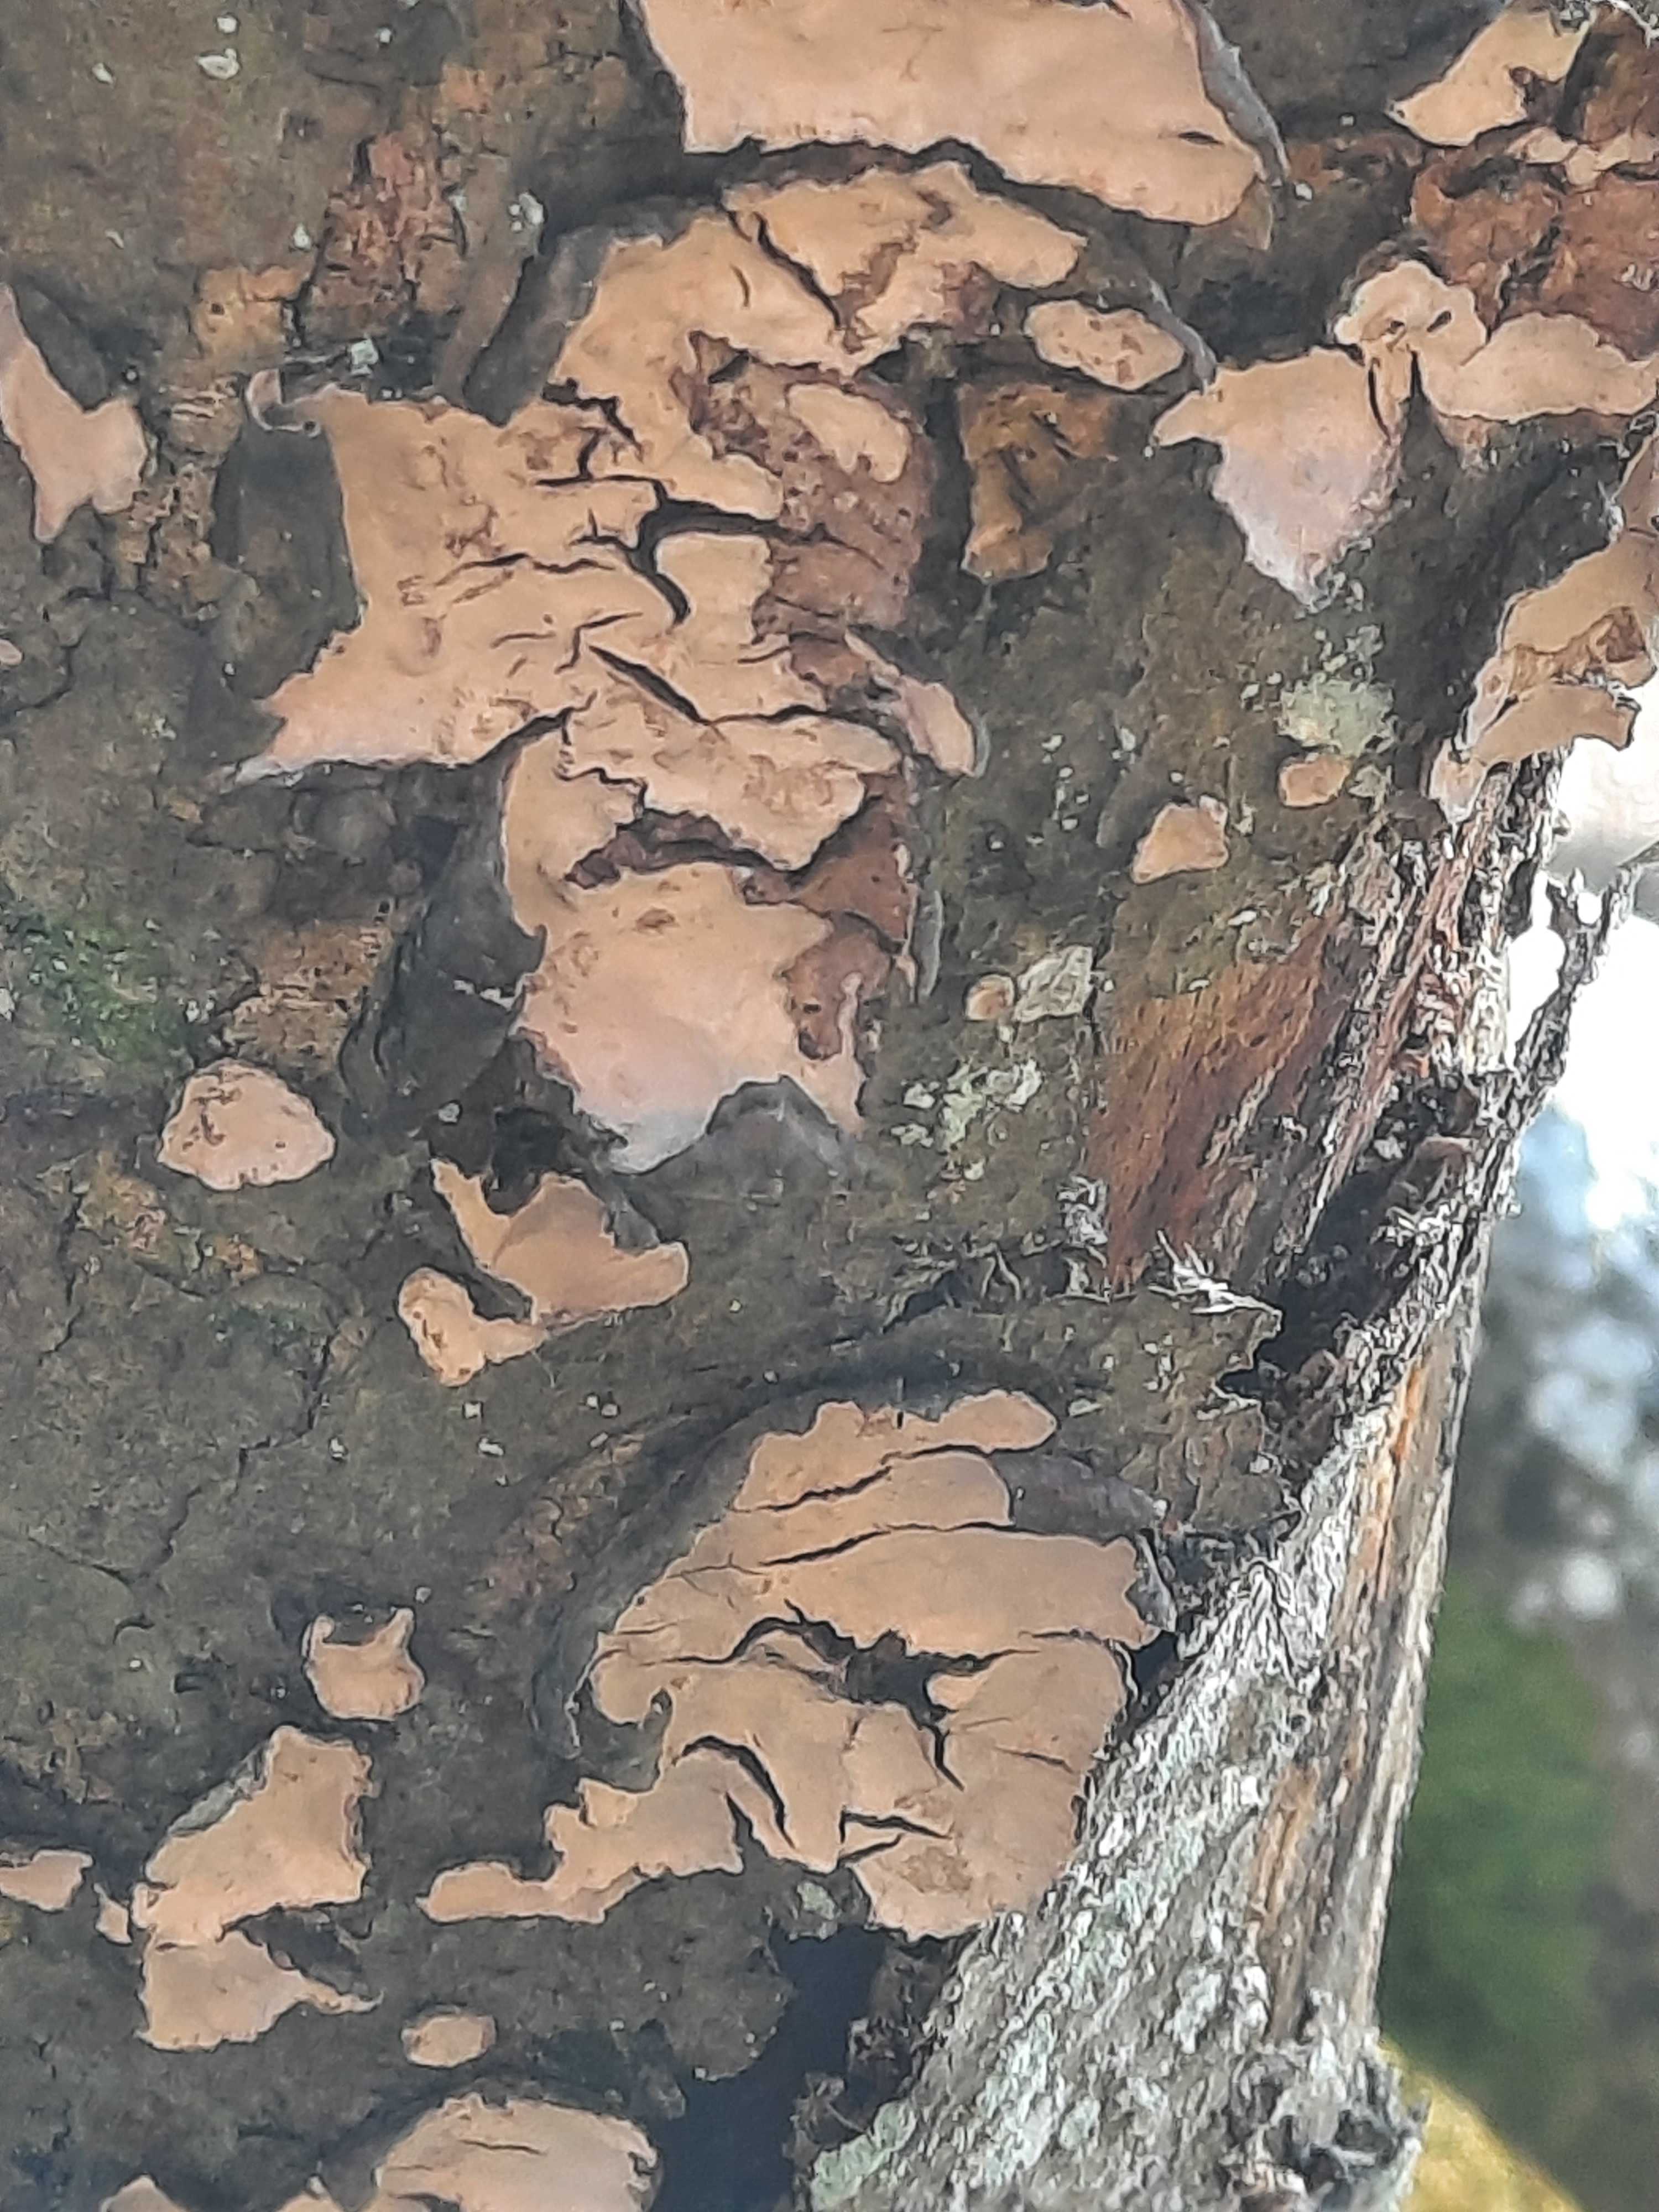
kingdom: Fungi
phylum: Basidiomycota
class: Agaricomycetes
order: Russulales
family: Stereaceae
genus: Stereum
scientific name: Stereum rugosum
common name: rynket lædersvamp
